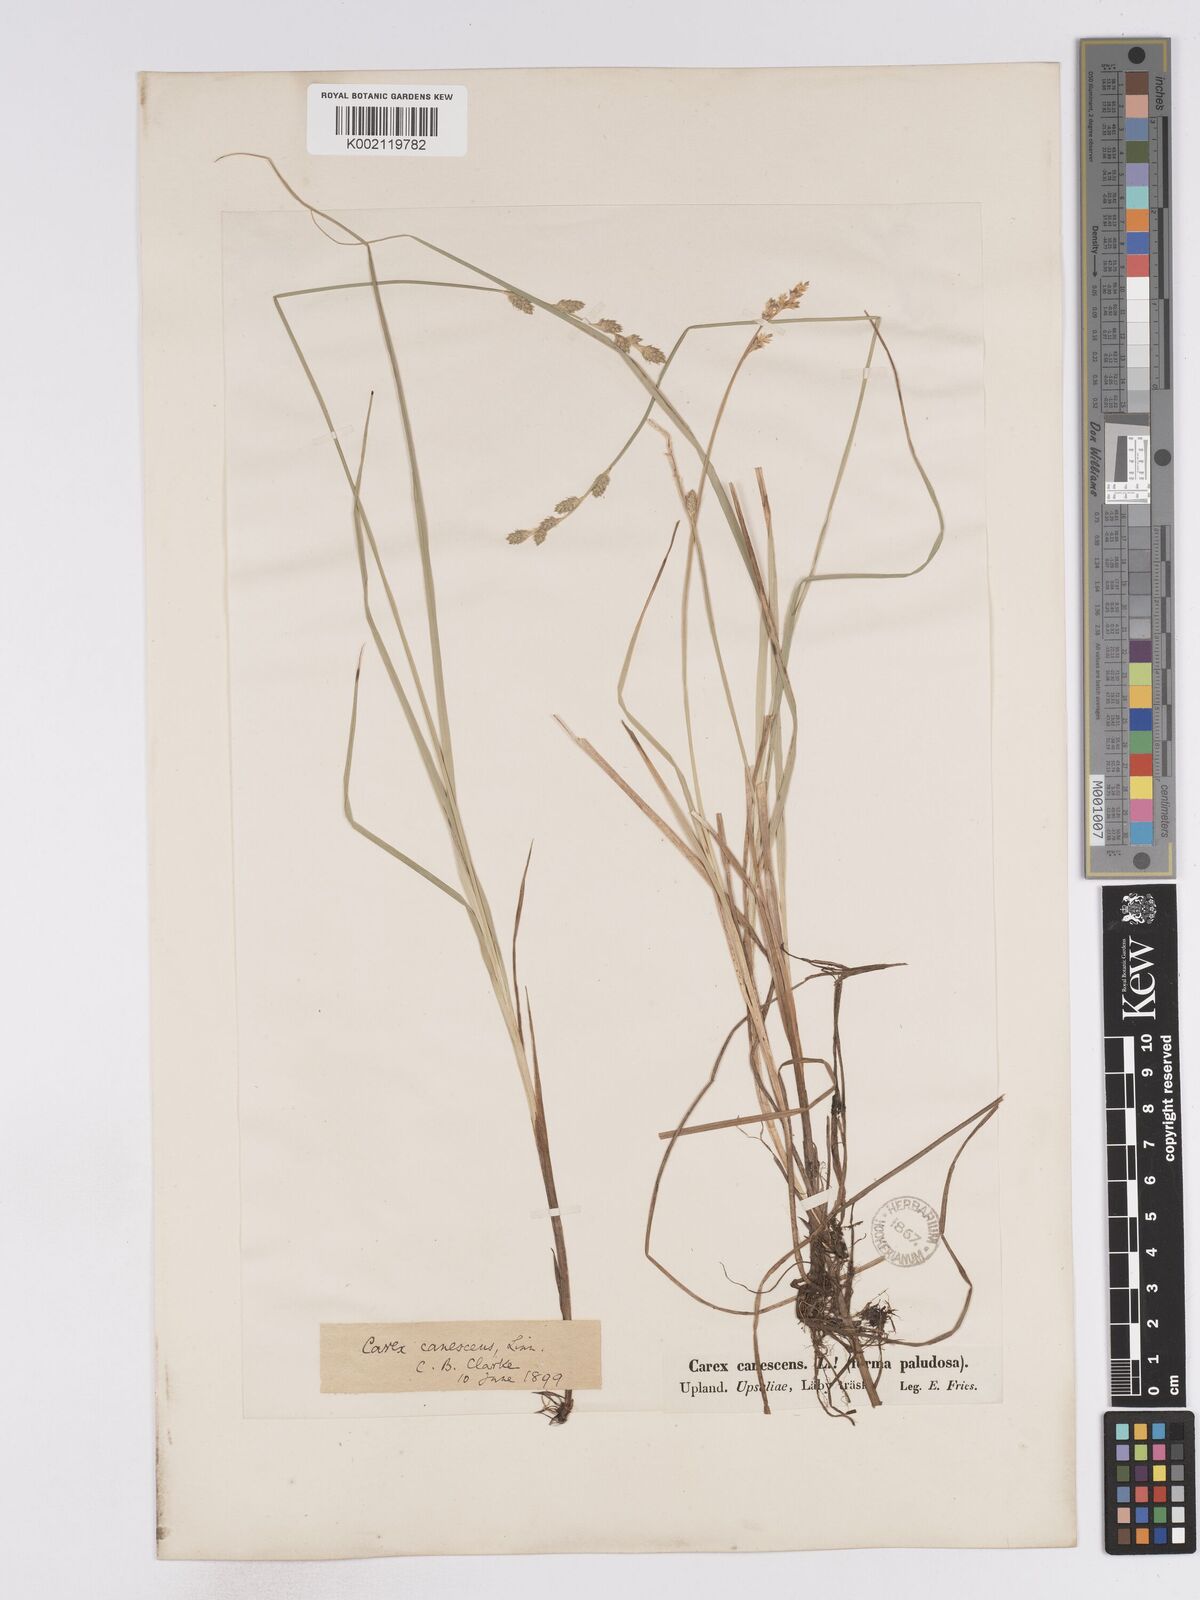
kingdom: Plantae
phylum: Tracheophyta
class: Liliopsida
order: Poales
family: Cyperaceae
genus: Carex
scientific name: Carex curta
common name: White sedge
